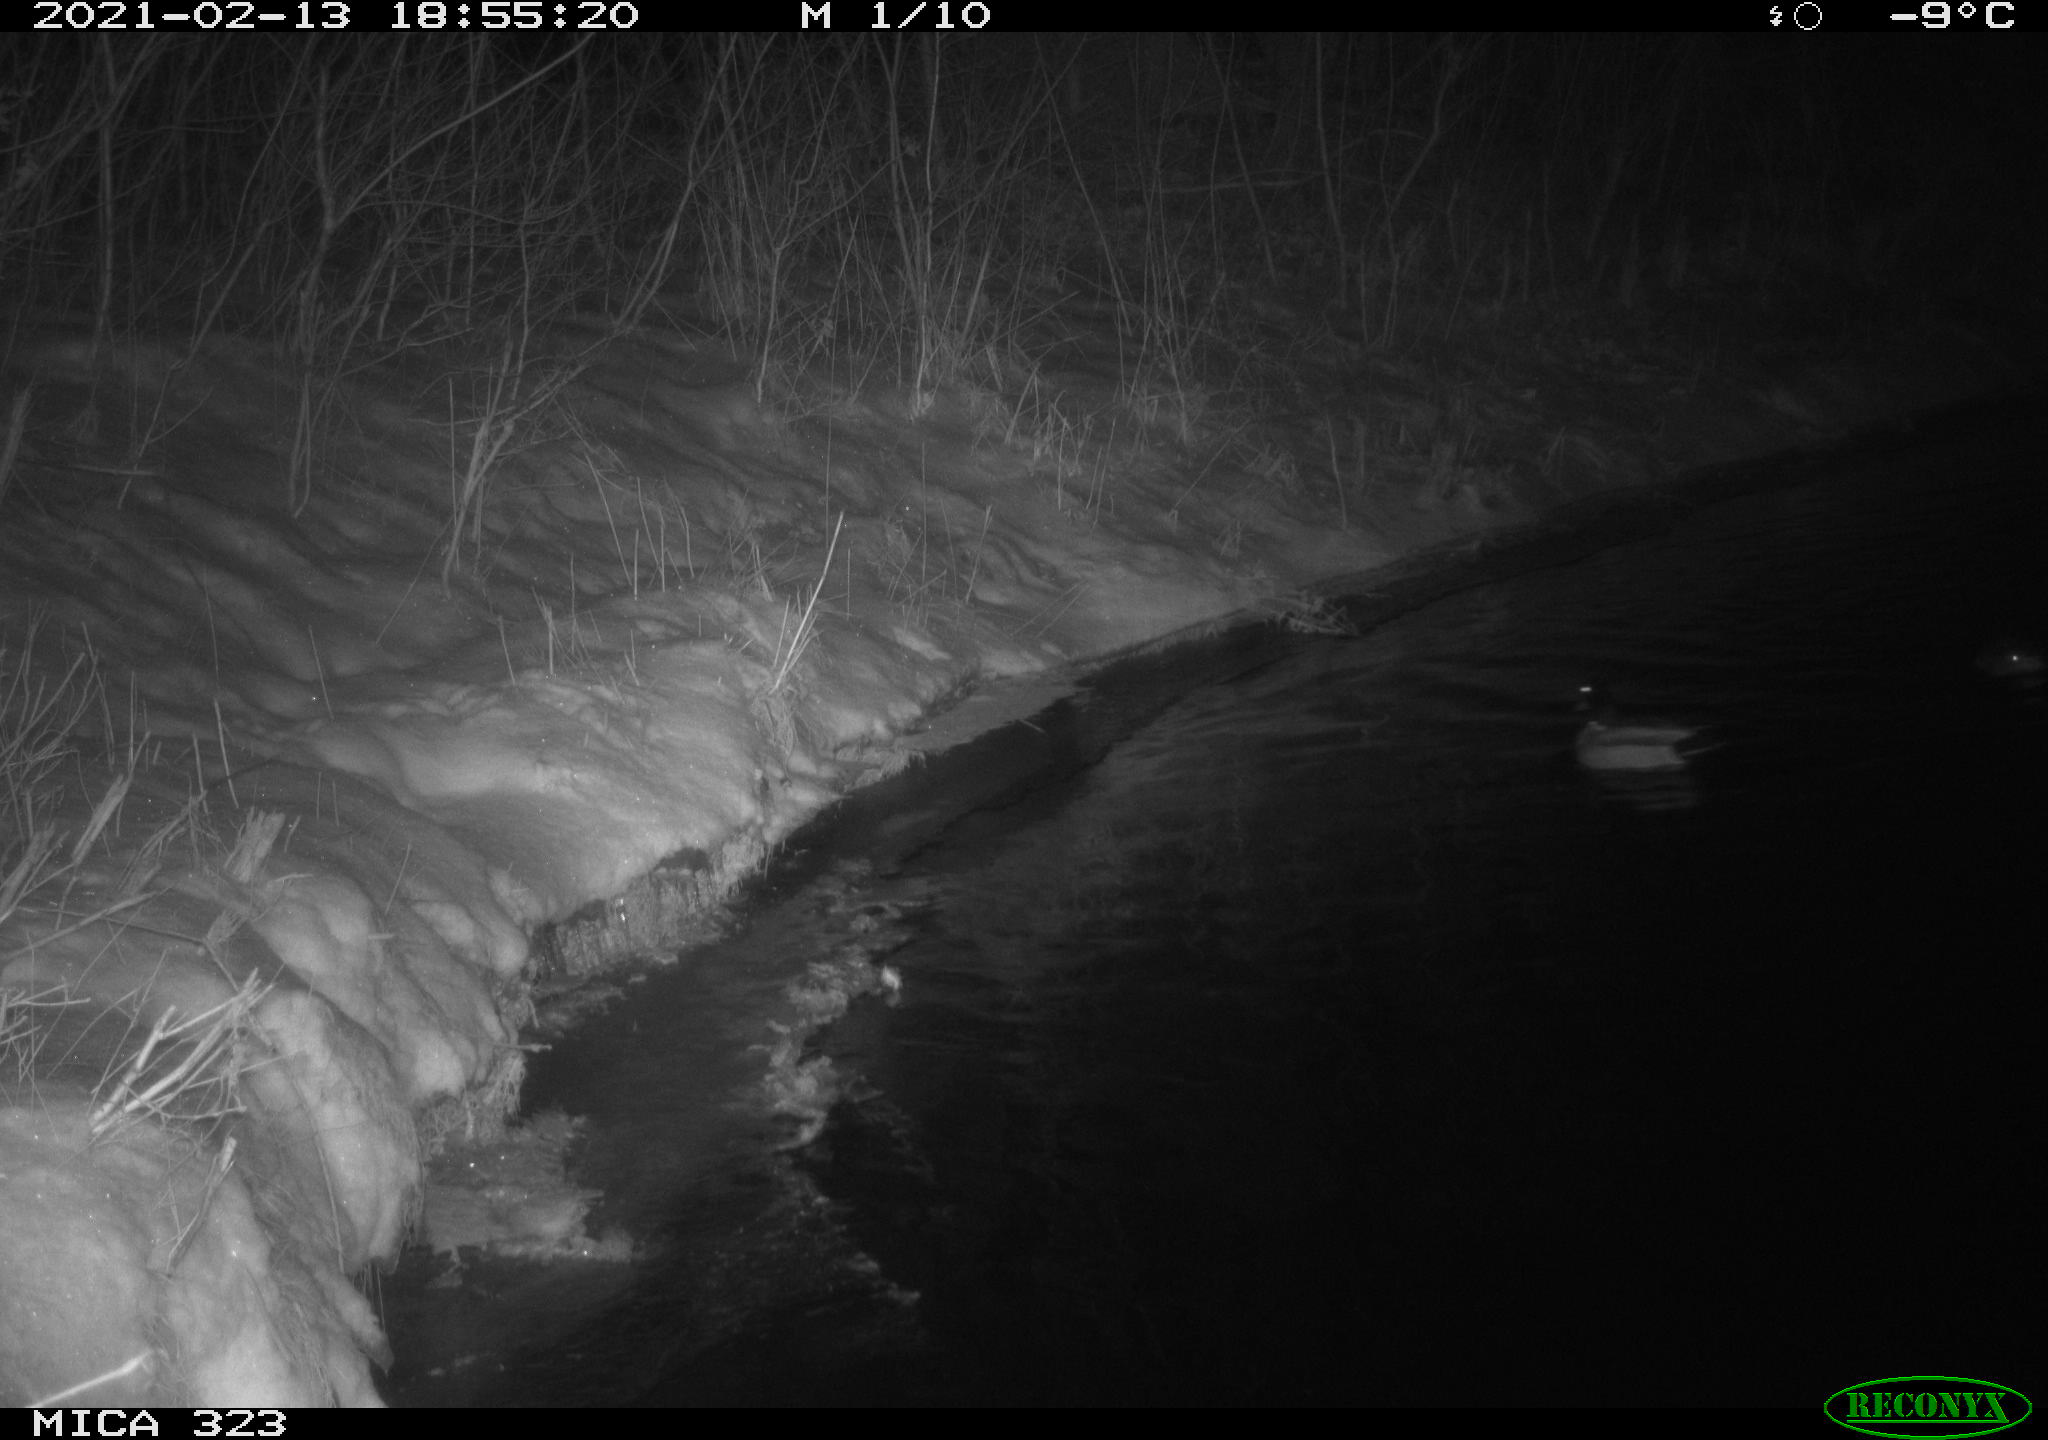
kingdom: Animalia
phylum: Chordata
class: Aves
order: Anseriformes
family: Anatidae
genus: Anas
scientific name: Anas platyrhynchos
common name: Mallard
